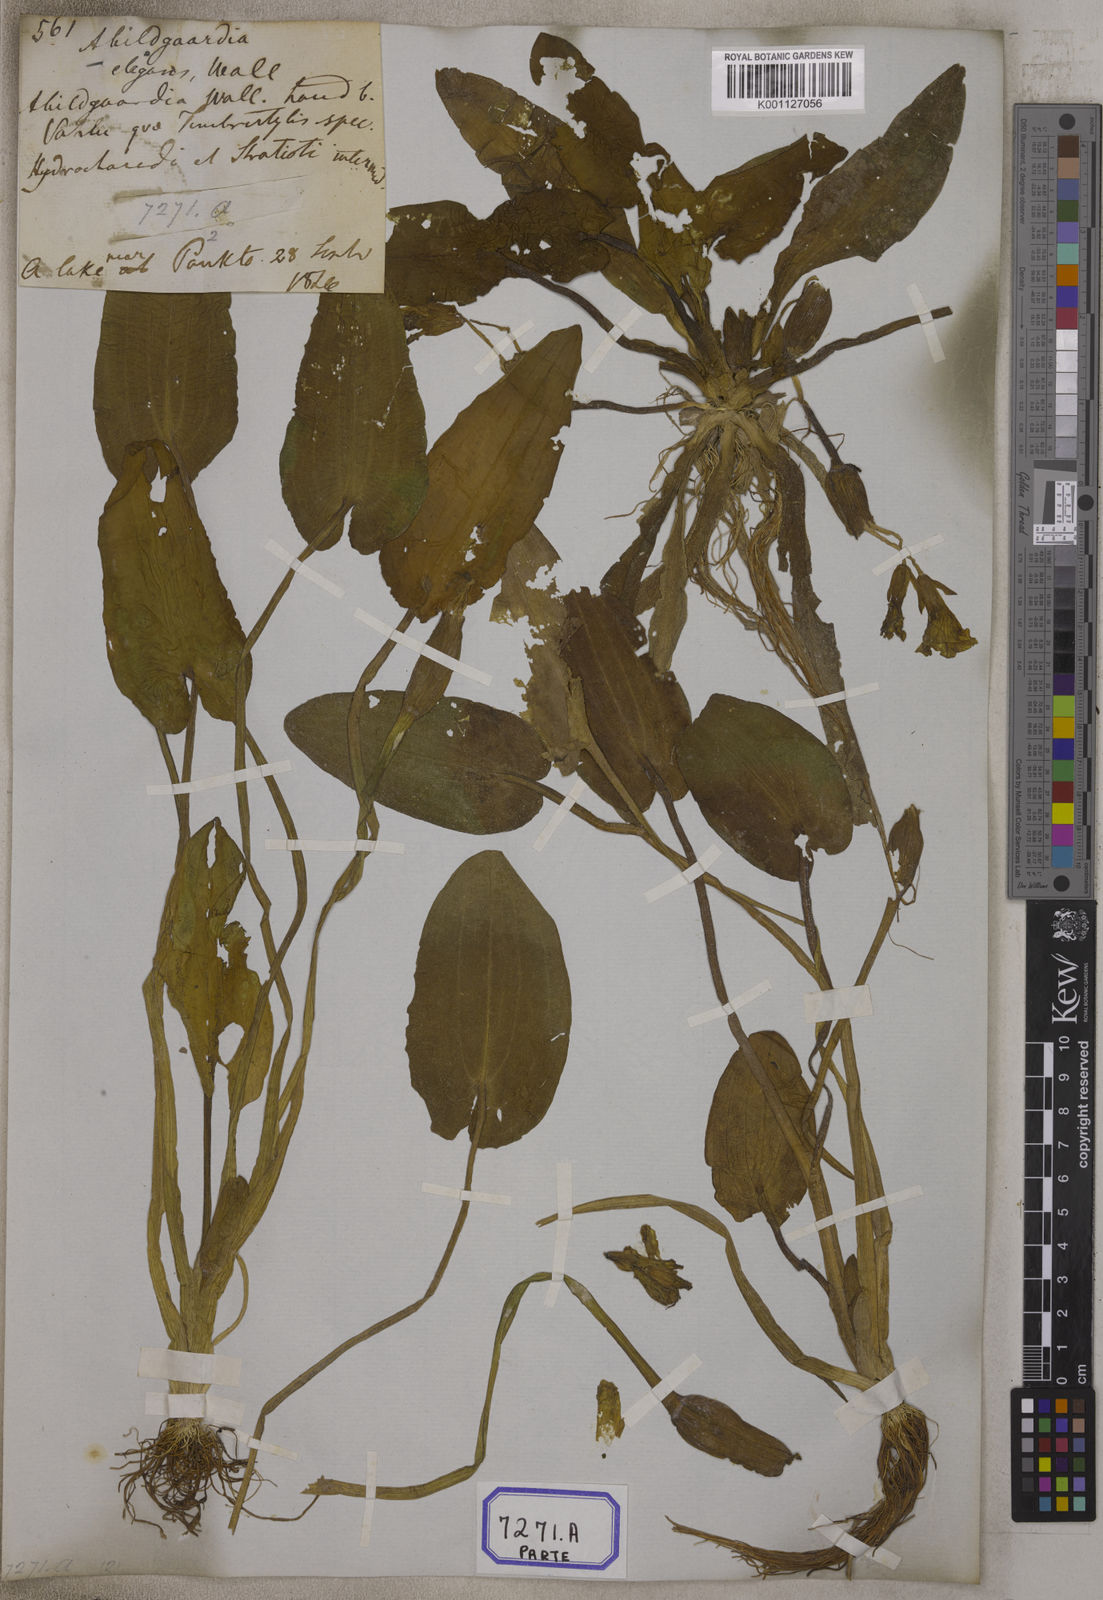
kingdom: Plantae
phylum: Tracheophyta
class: Liliopsida
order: Alismatales
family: Hydrocharitaceae
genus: Ottelia
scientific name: Ottelia cordata
